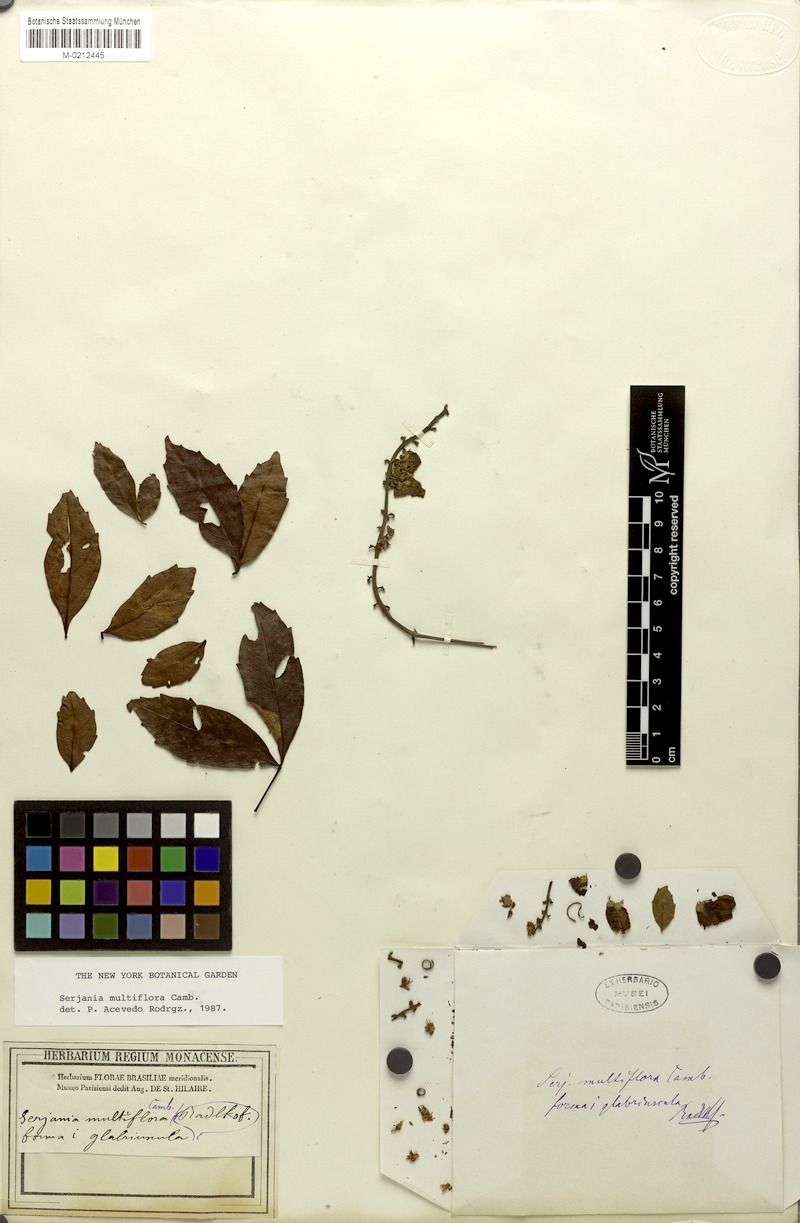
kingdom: Plantae
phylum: Tracheophyta
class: Magnoliopsida
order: Sapindales
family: Sapindaceae
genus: Serjania
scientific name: Serjania multiflora
